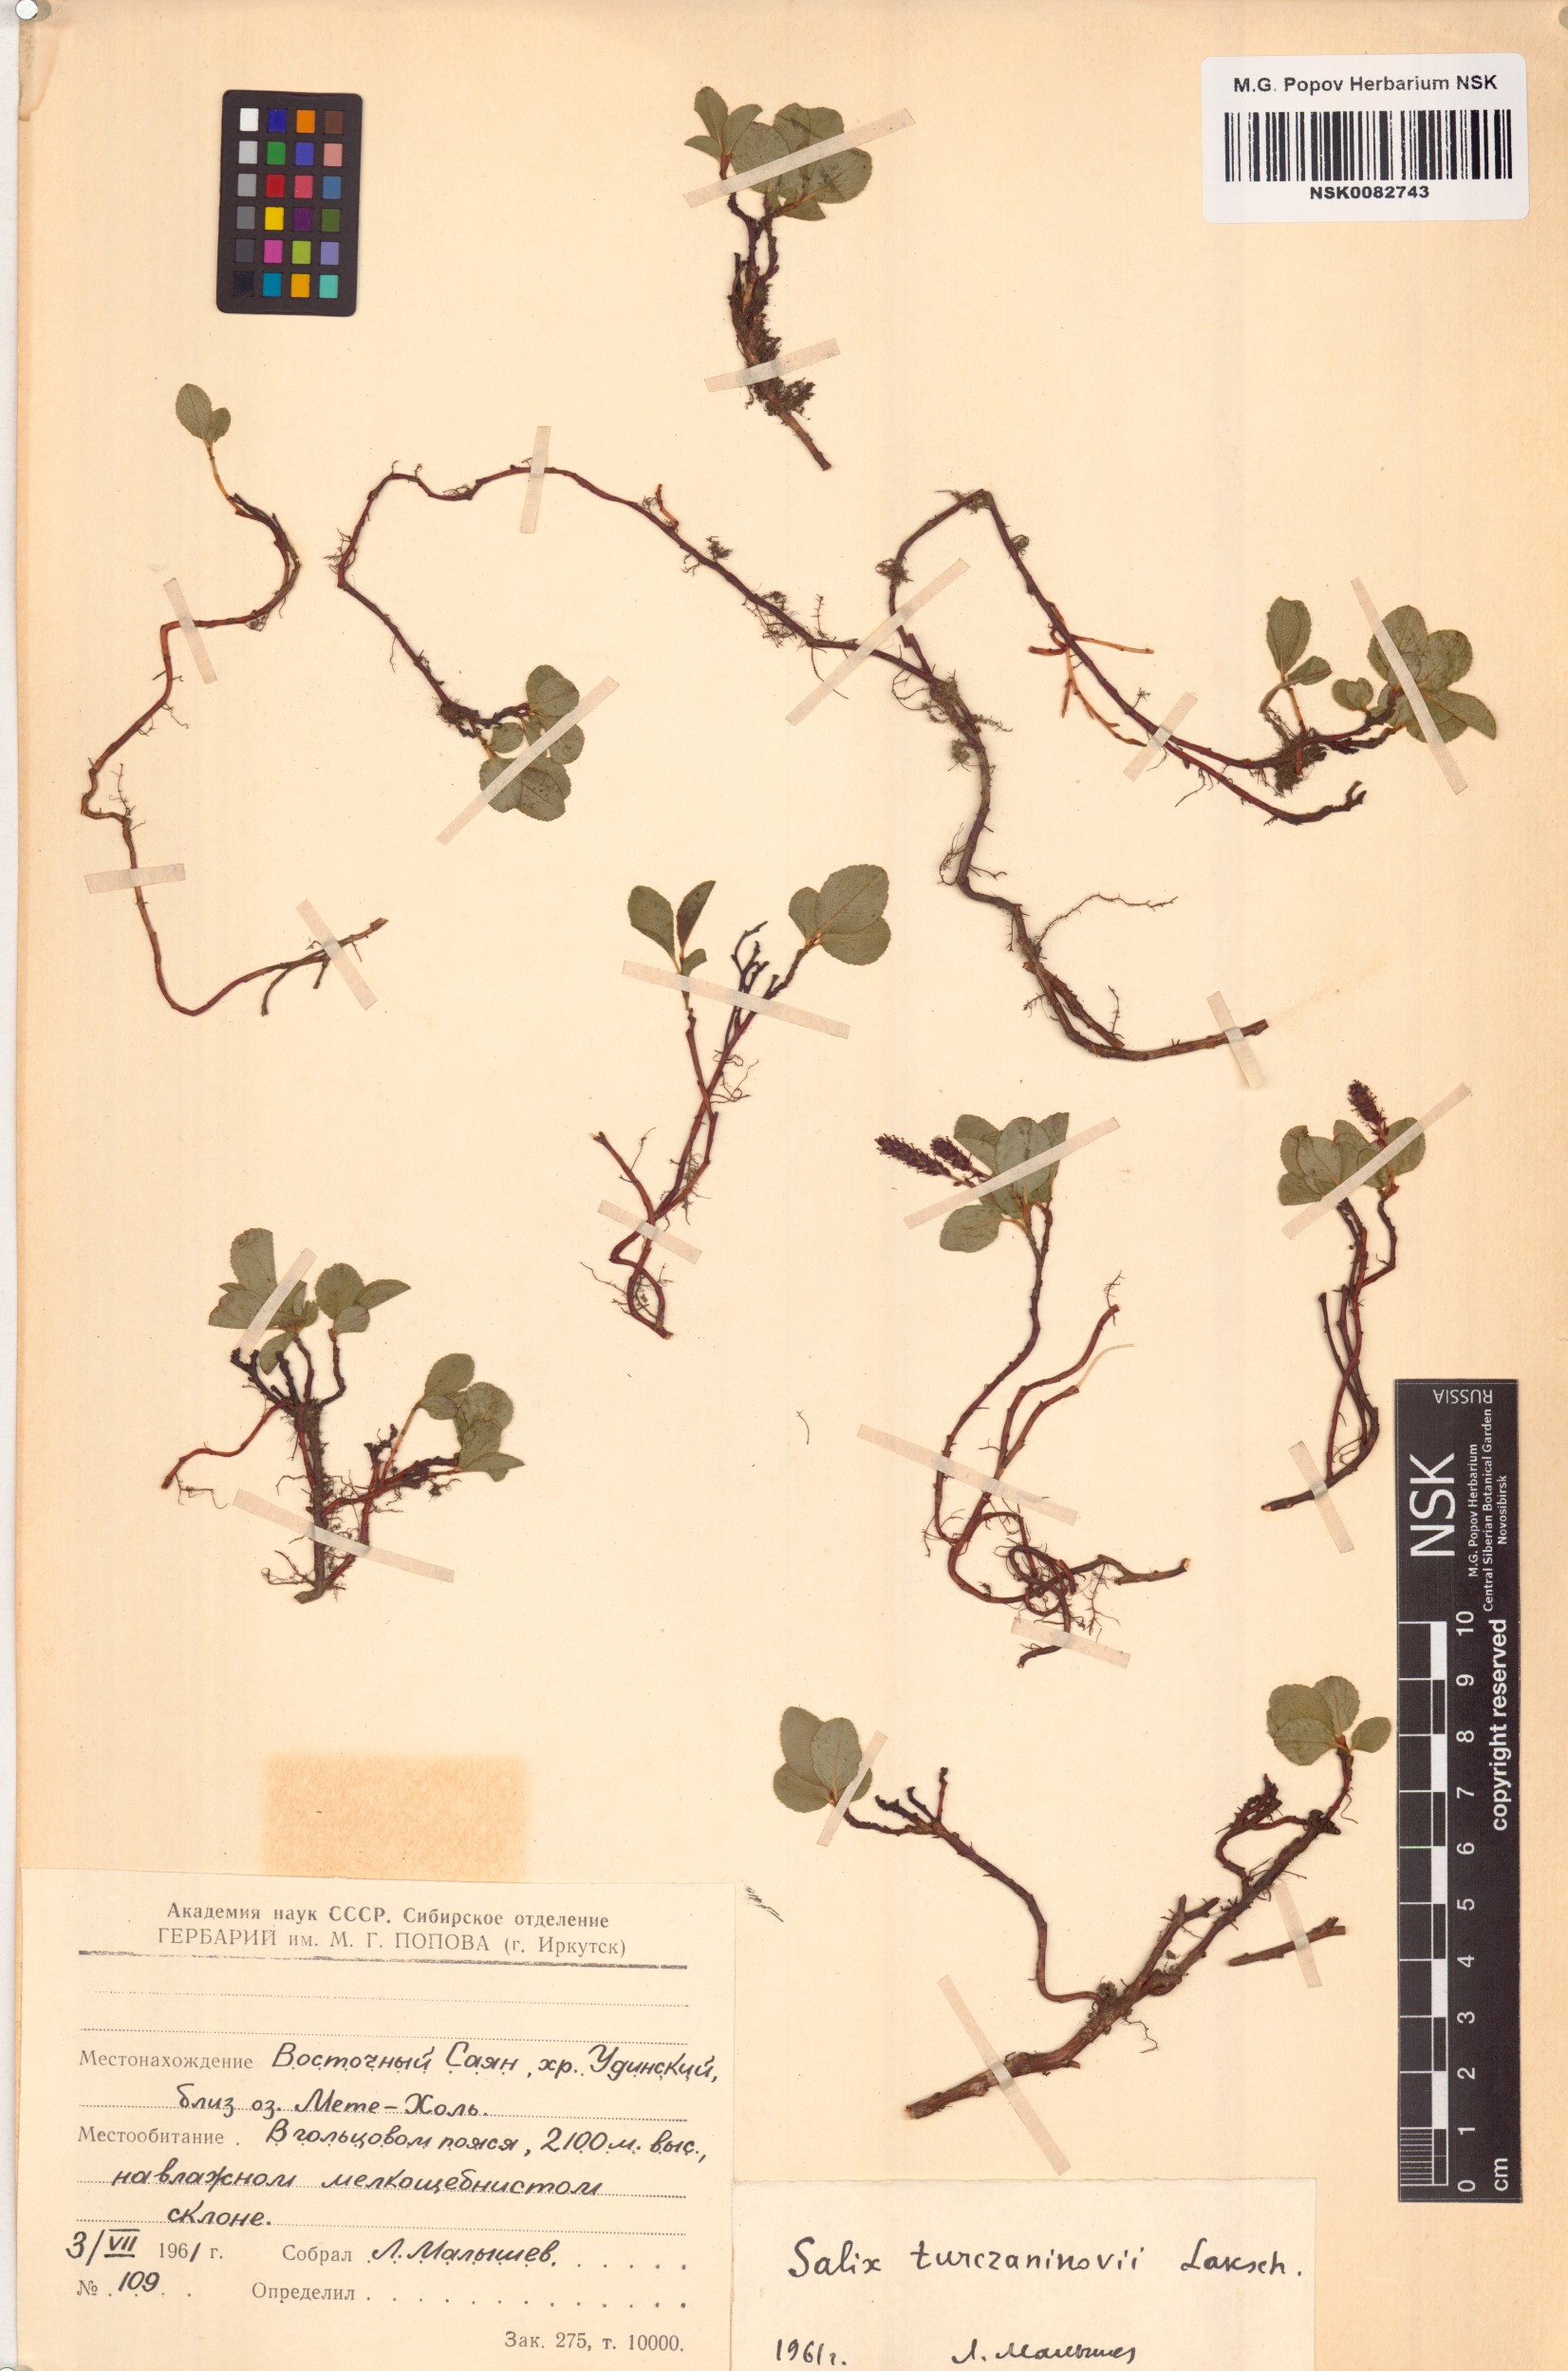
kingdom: Plantae
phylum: Tracheophyta
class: Magnoliopsida
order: Malpighiales
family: Salicaceae
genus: Salix
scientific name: Salix turczaninowii
